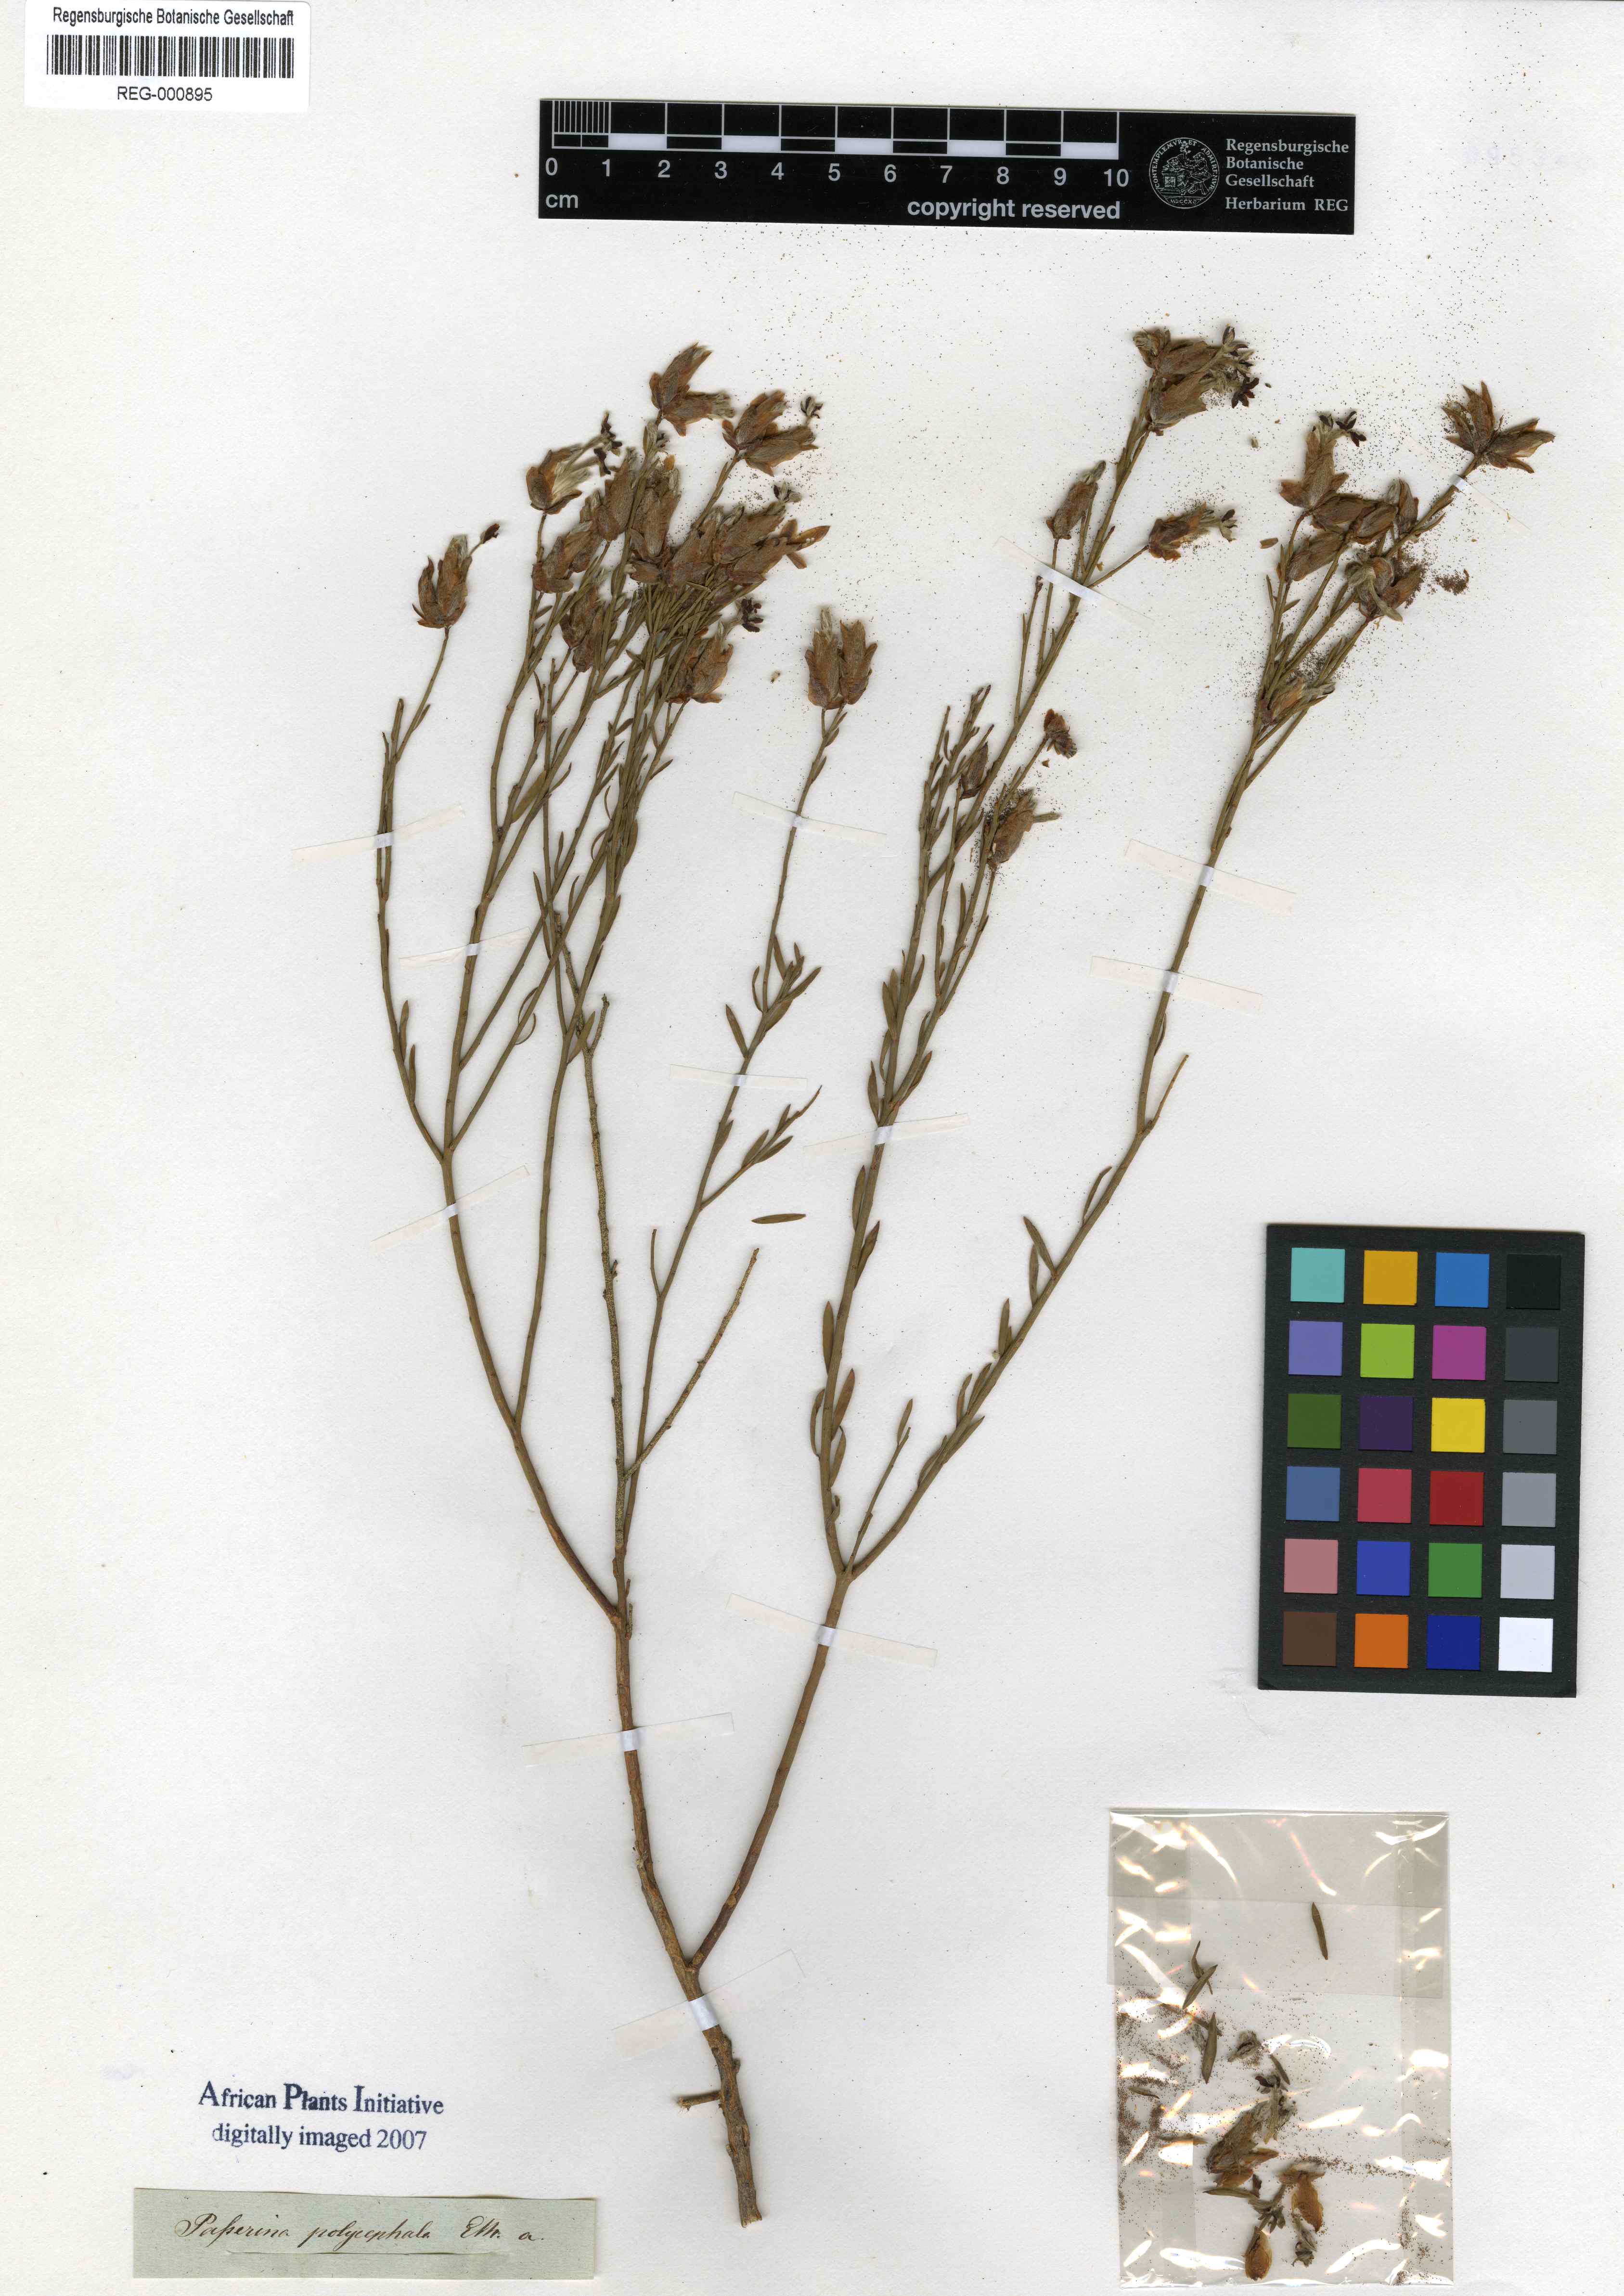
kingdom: Plantae
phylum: Tracheophyta
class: Magnoliopsida
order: Malvales
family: Thymelaeaceae
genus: Gnidia
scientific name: Gnidia polycephala
